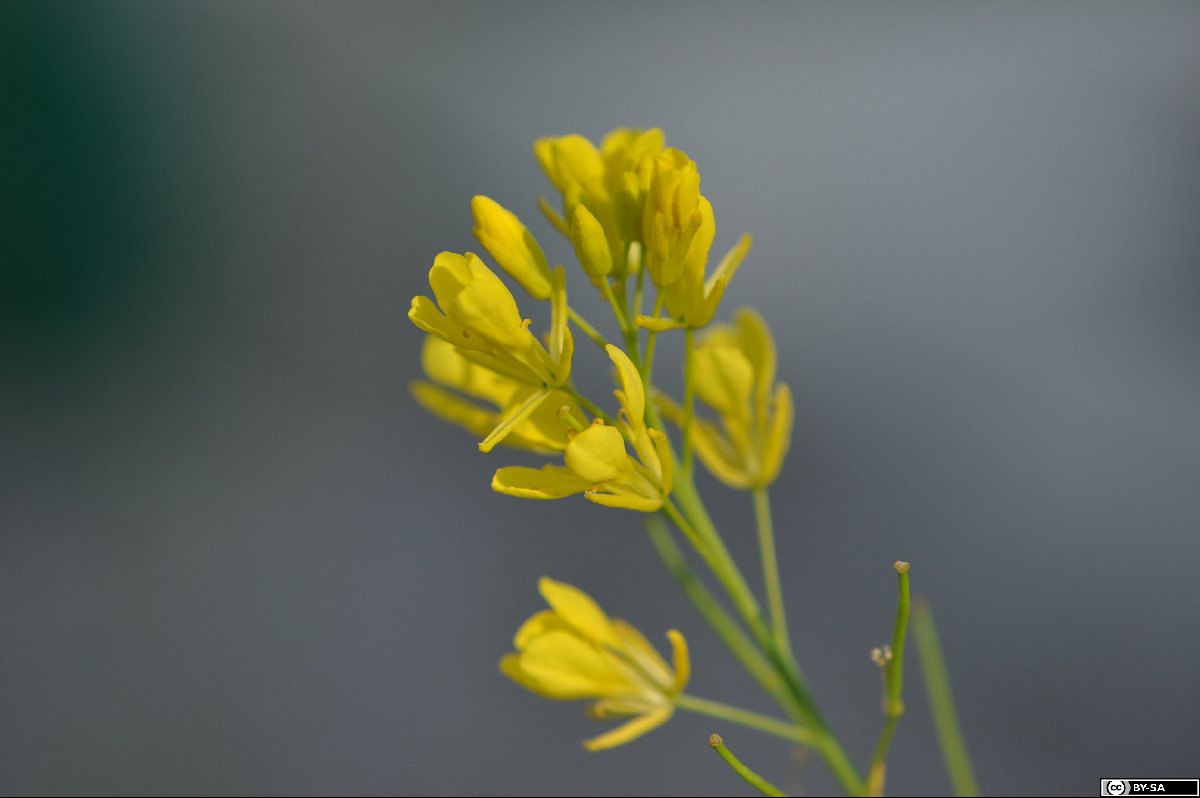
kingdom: Plantae
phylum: Tracheophyta
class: Magnoliopsida
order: Brassicales
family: Brassicaceae
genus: Brassica
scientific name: Brassica juncea
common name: Brown mustard
